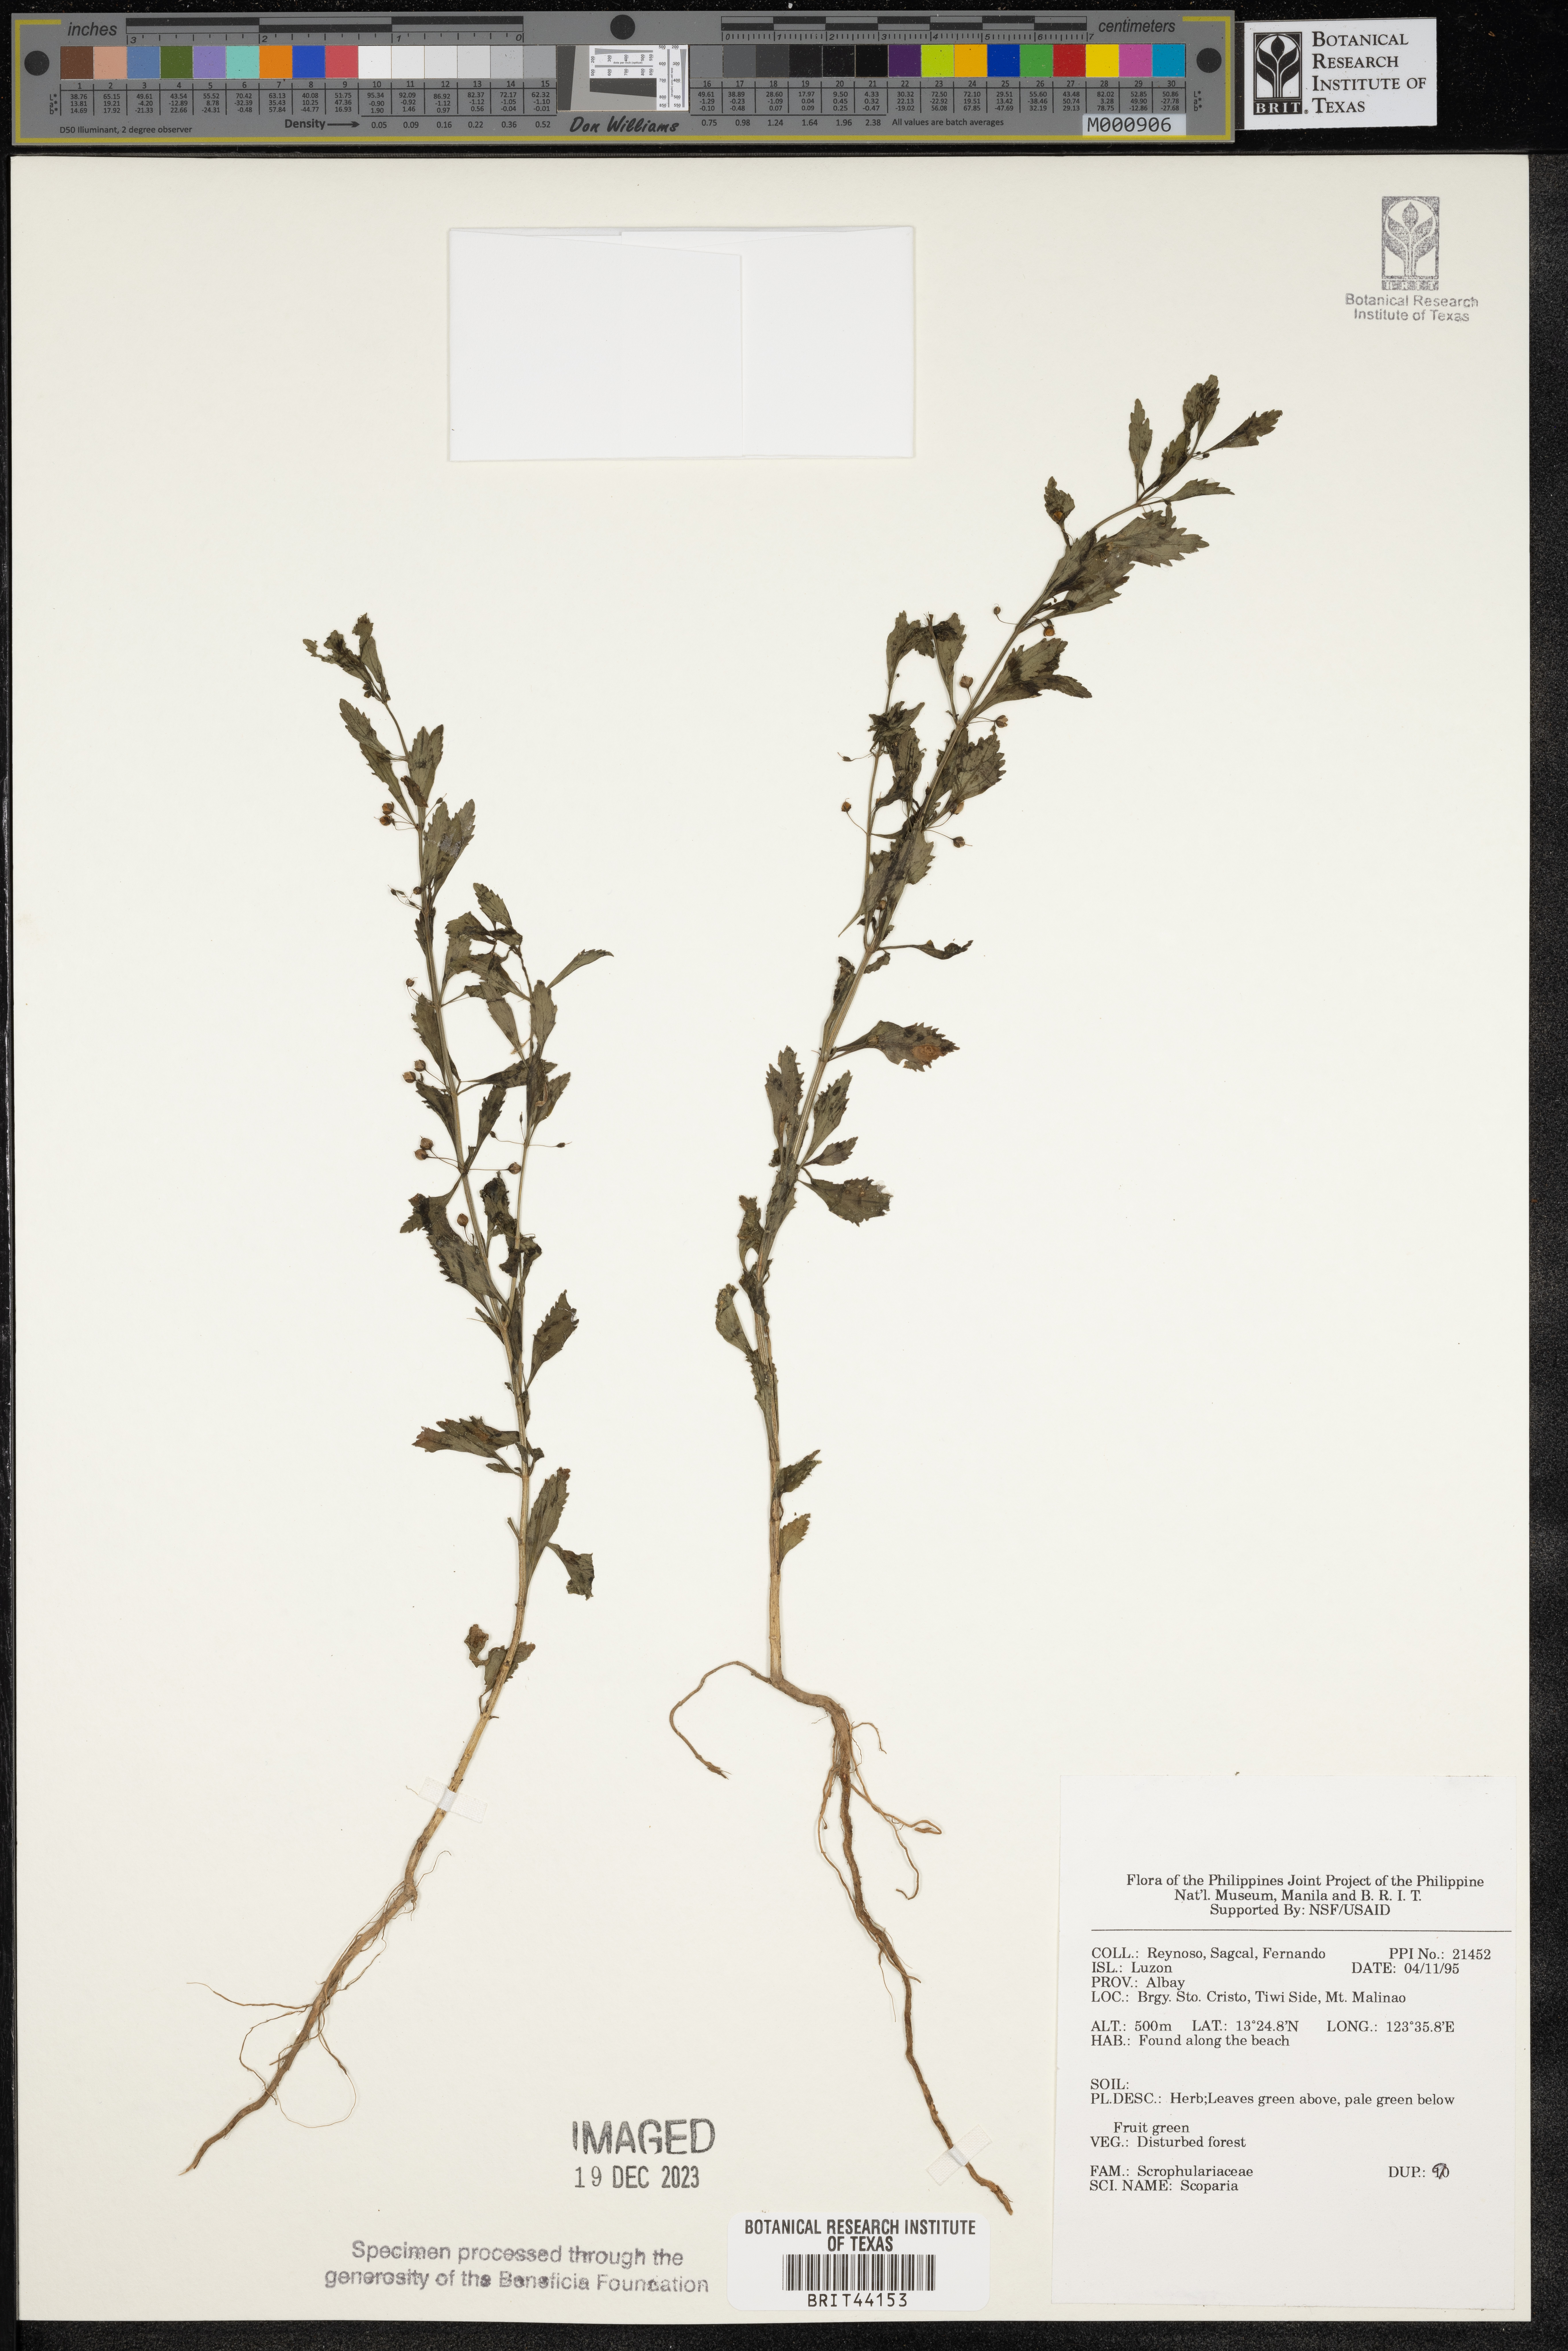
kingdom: Plantae
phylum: Tracheophyta
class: Magnoliopsida
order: Lamiales
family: Plantaginaceae
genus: Scoparia
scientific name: Scoparia
